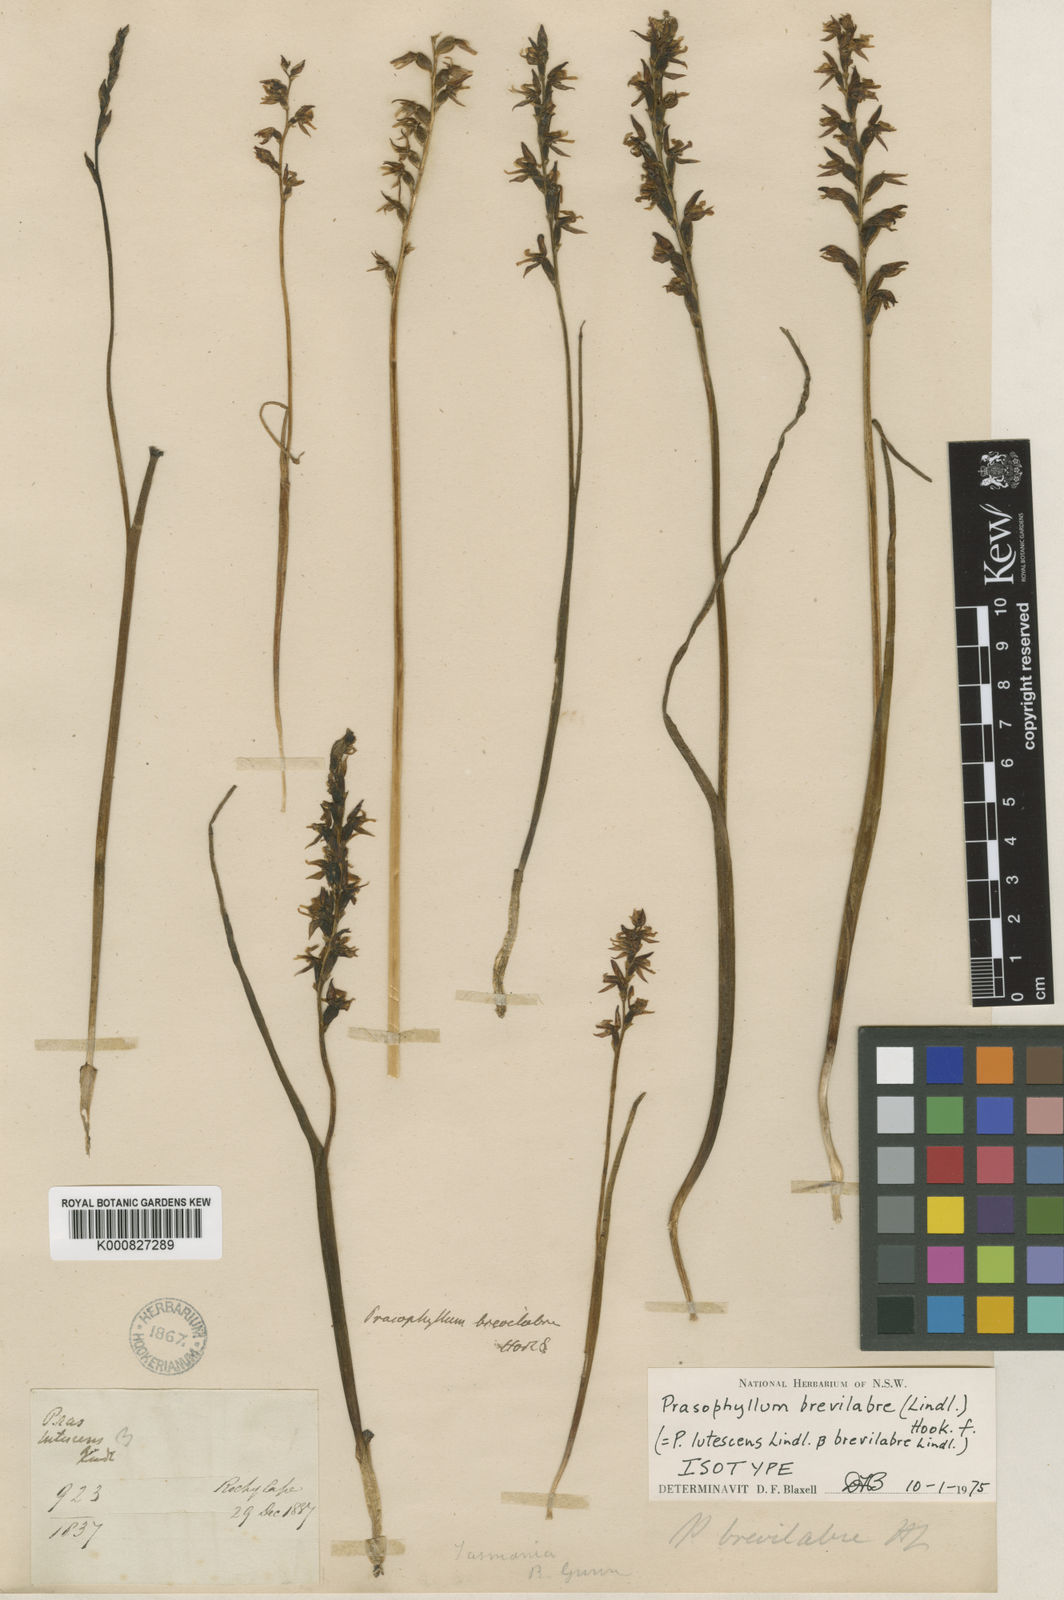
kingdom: Plantae
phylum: Tracheophyta
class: Liliopsida
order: Asparagales
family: Orchidaceae
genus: Prasophyllum
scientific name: Prasophyllum brevilabre
